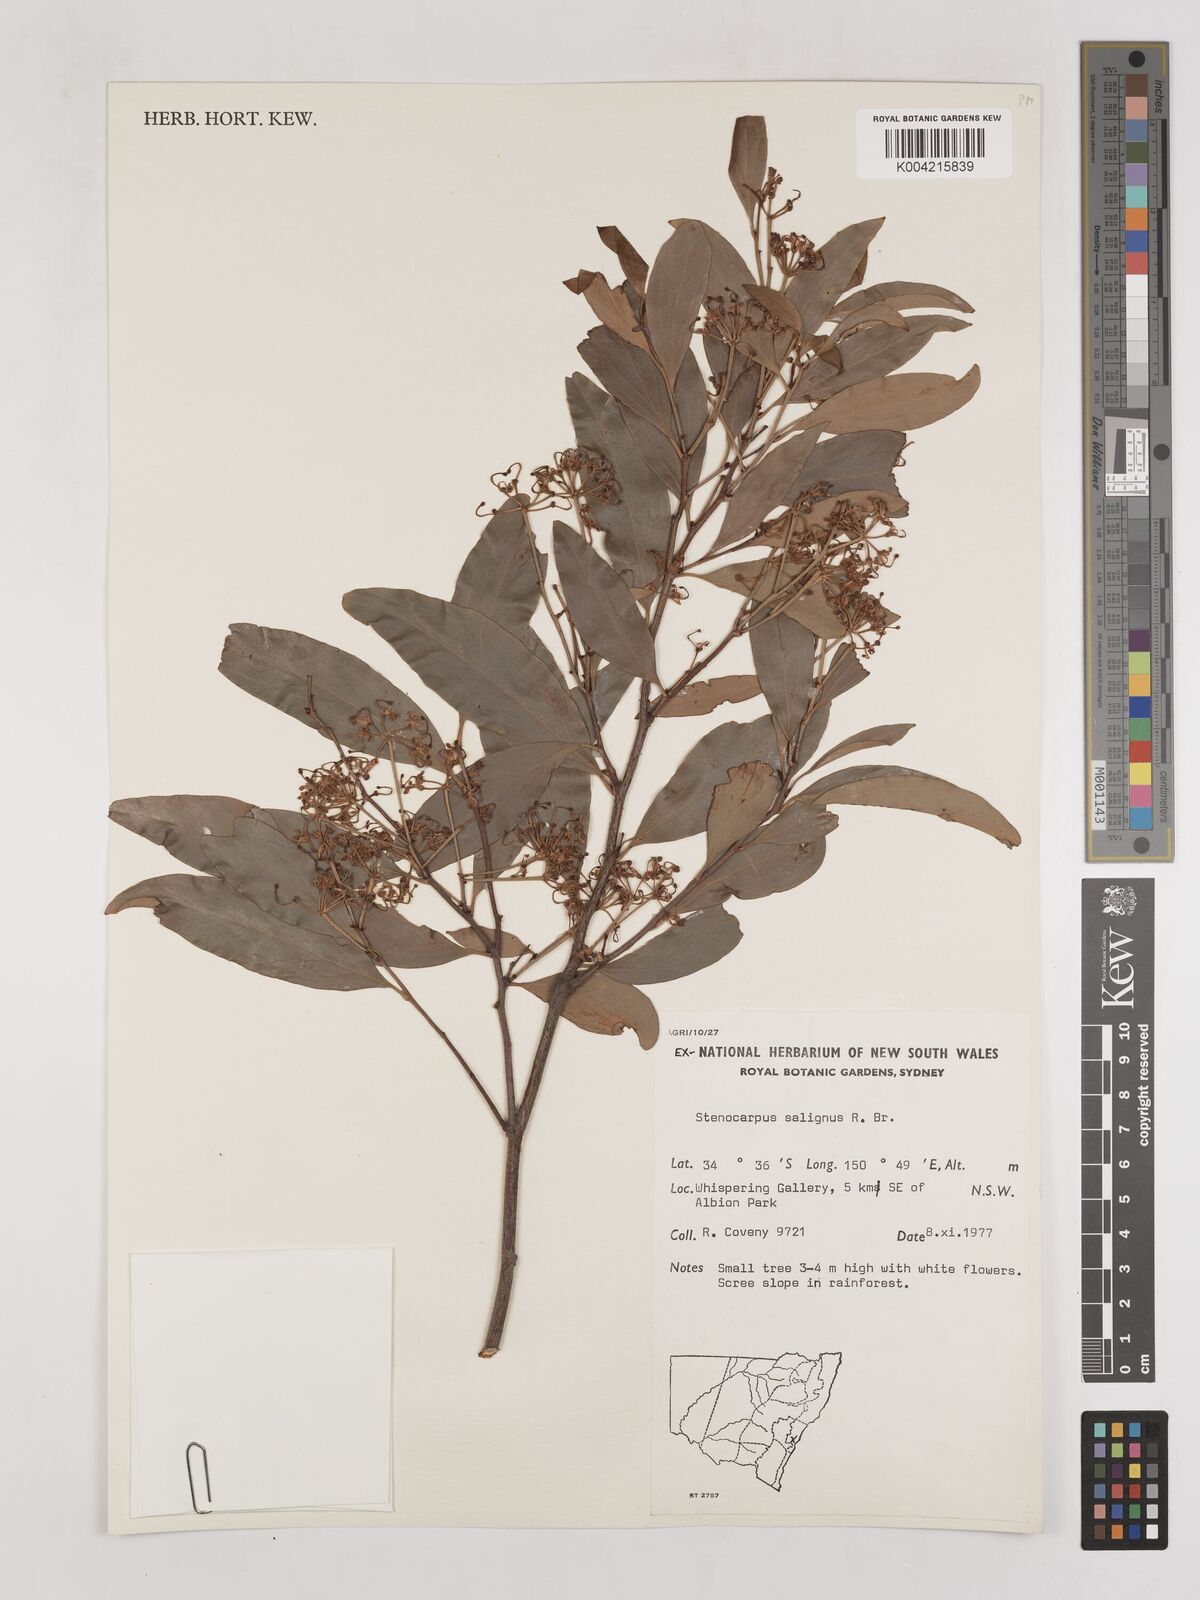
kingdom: Plantae
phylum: Tracheophyta
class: Magnoliopsida
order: Proteales
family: Proteaceae
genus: Stenocarpus
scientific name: Stenocarpus salignus
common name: Red silky-oak
